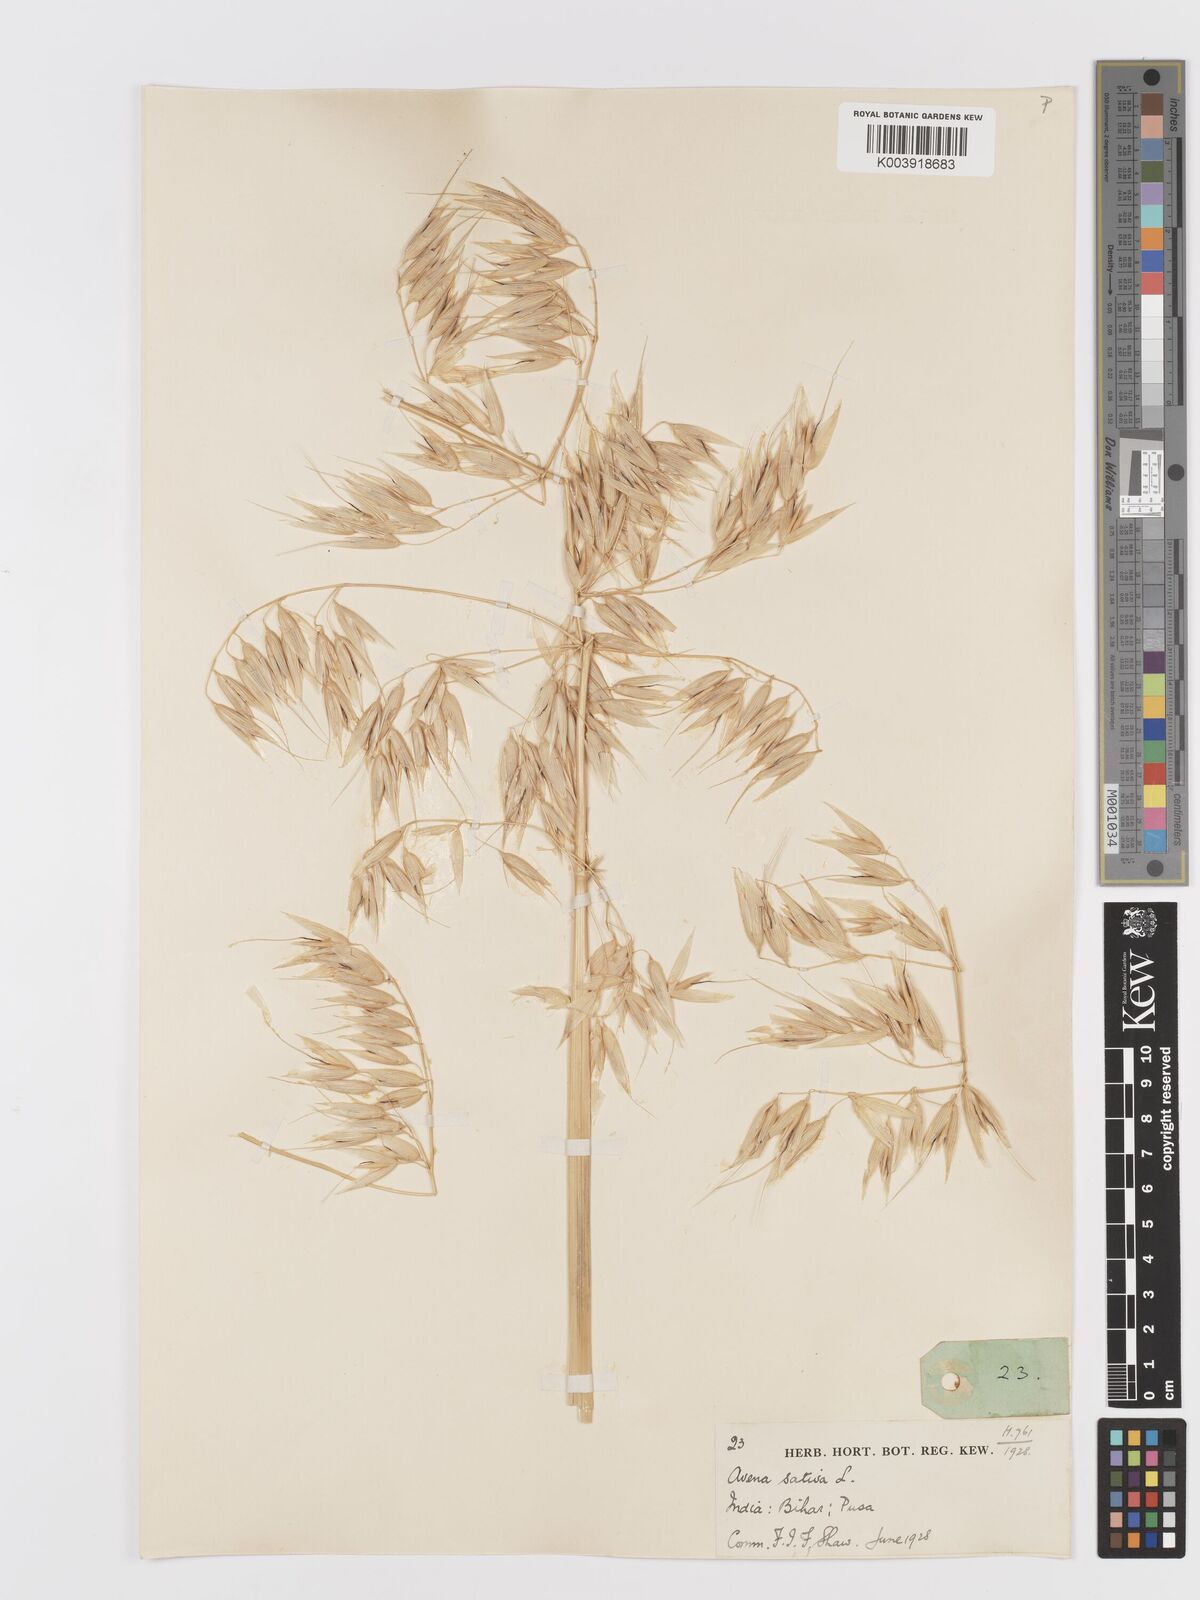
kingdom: Plantae
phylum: Tracheophyta
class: Liliopsida
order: Poales
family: Poaceae
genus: Avena
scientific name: Avena sativa
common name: Oat
